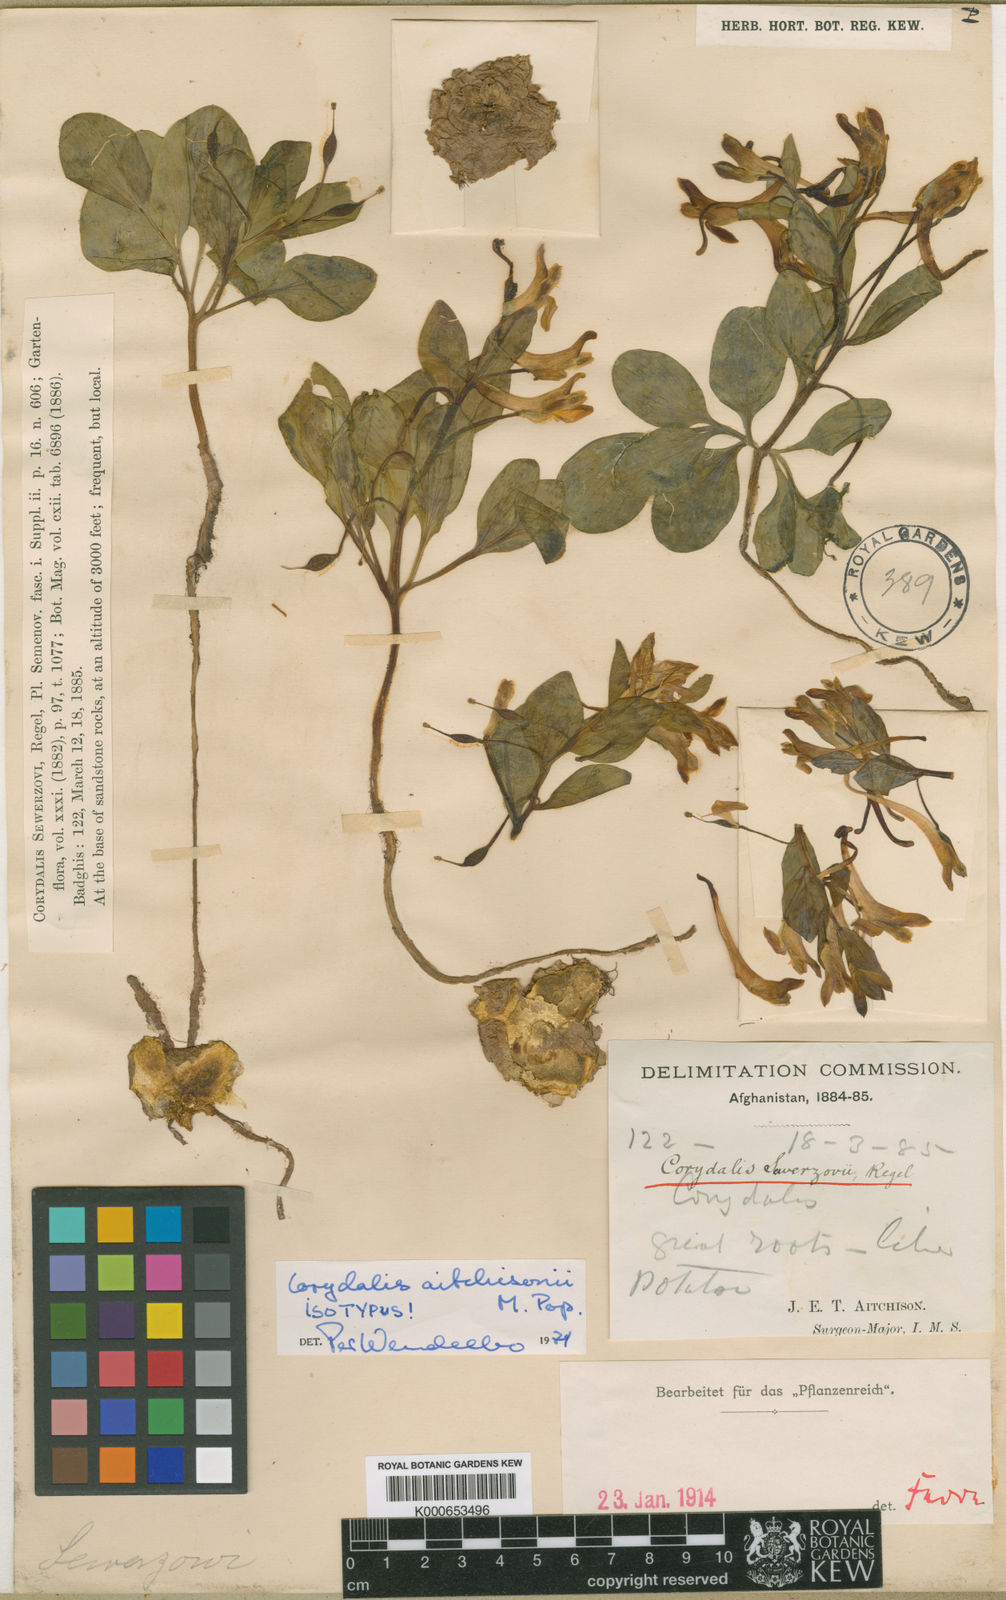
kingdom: Plantae
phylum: Tracheophyta
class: Magnoliopsida
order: Ranunculales
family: Papaveraceae
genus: Corydalis
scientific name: Corydalis sewerzowii
